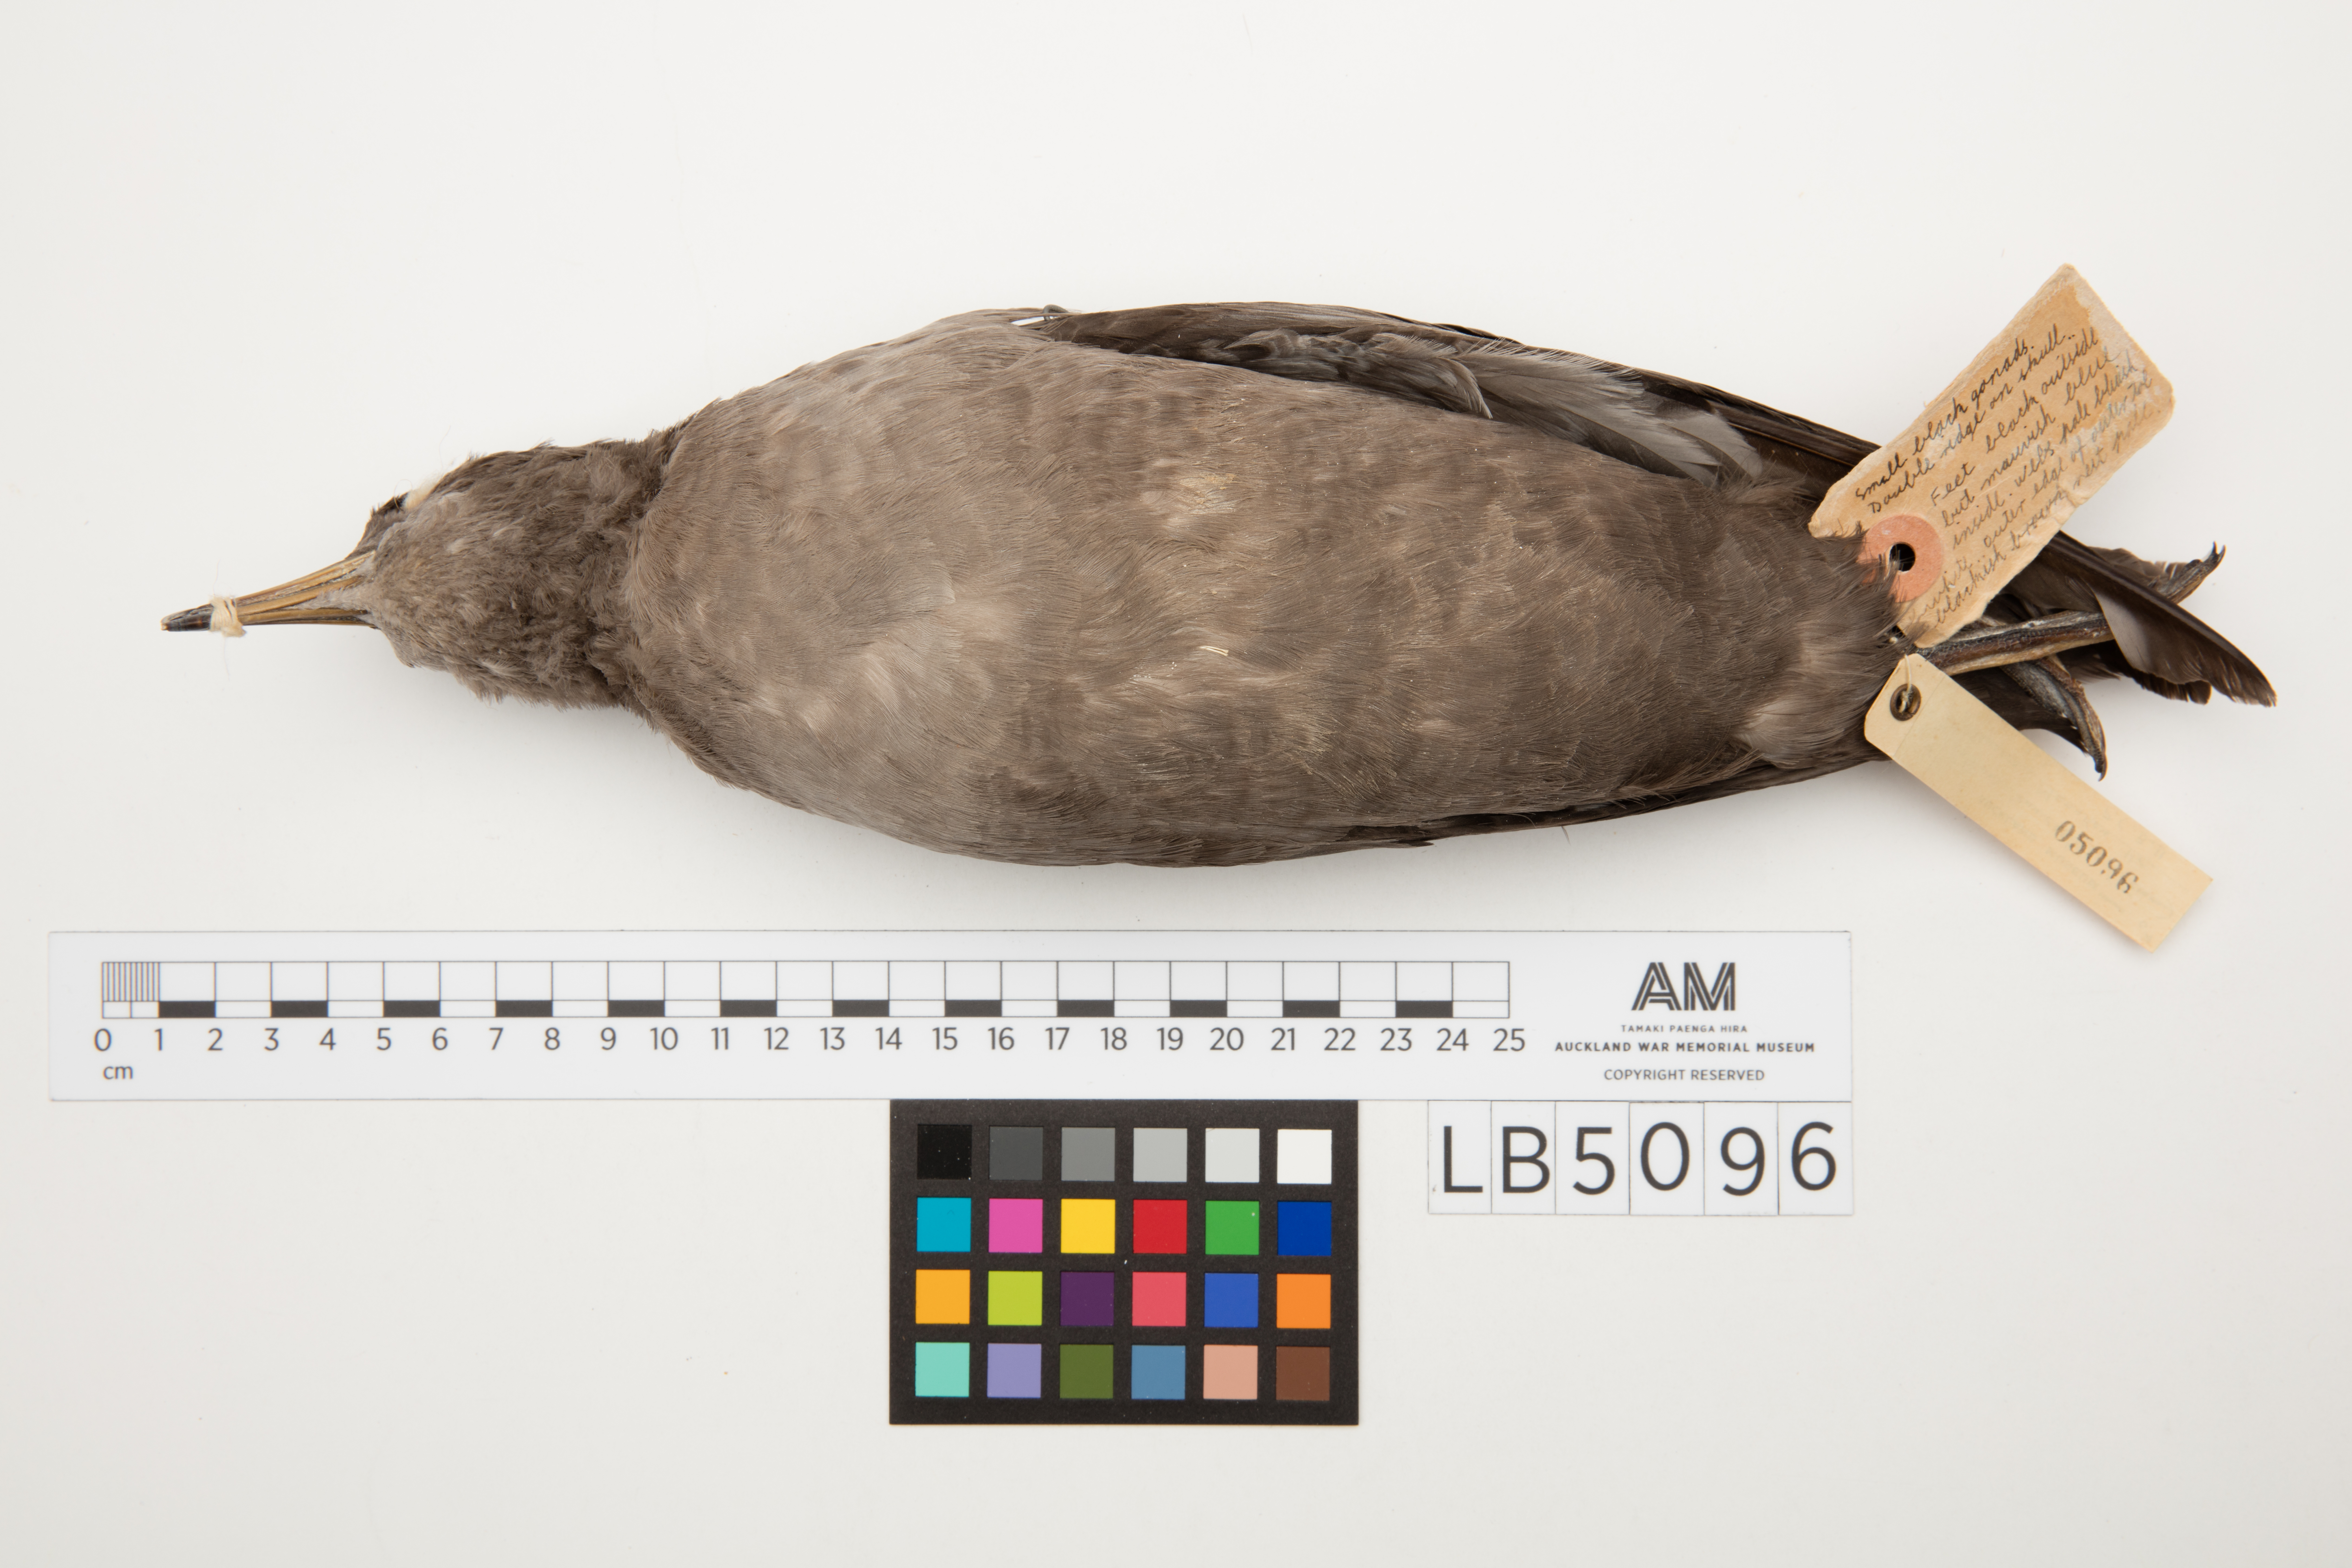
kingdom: Animalia
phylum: Chordata
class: Aves
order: Procellariiformes
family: Procellariidae
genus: Puffinus
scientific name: Puffinus tenuirostris
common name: Short-tailed shearwater
